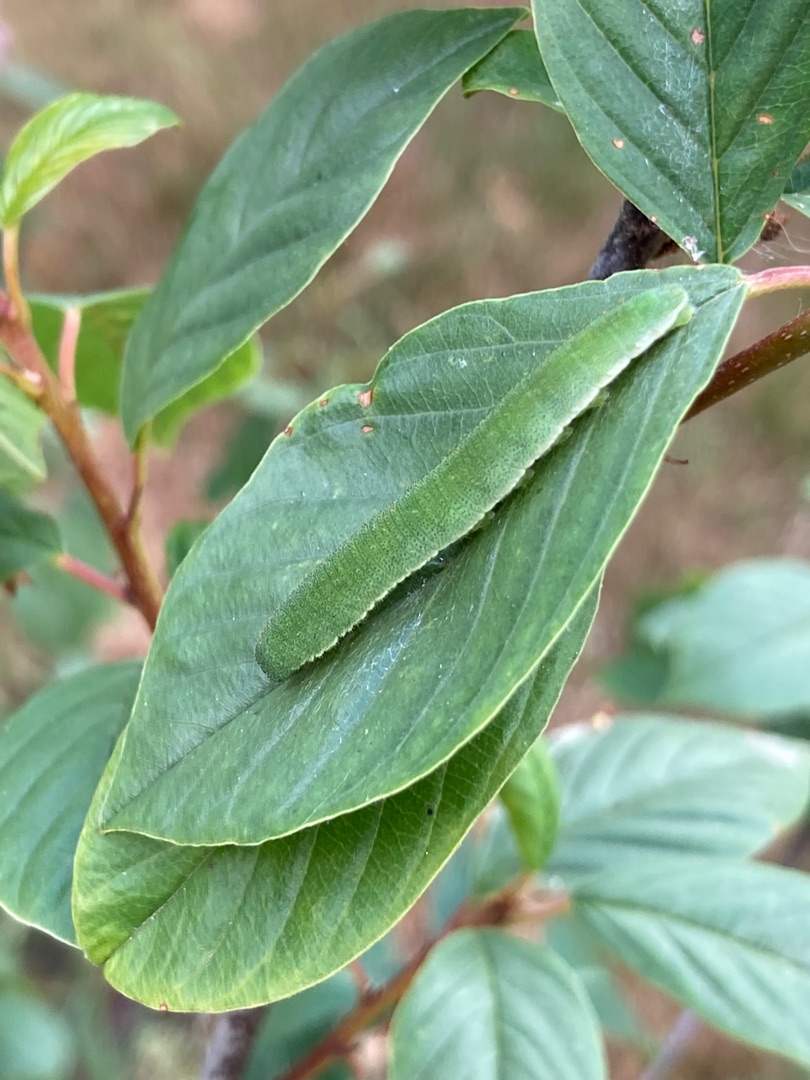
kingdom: Animalia
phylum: Arthropoda
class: Insecta
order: Lepidoptera
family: Pieridae
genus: Gonepteryx
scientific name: Gonepteryx rhamni
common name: Citronsommerfugl
